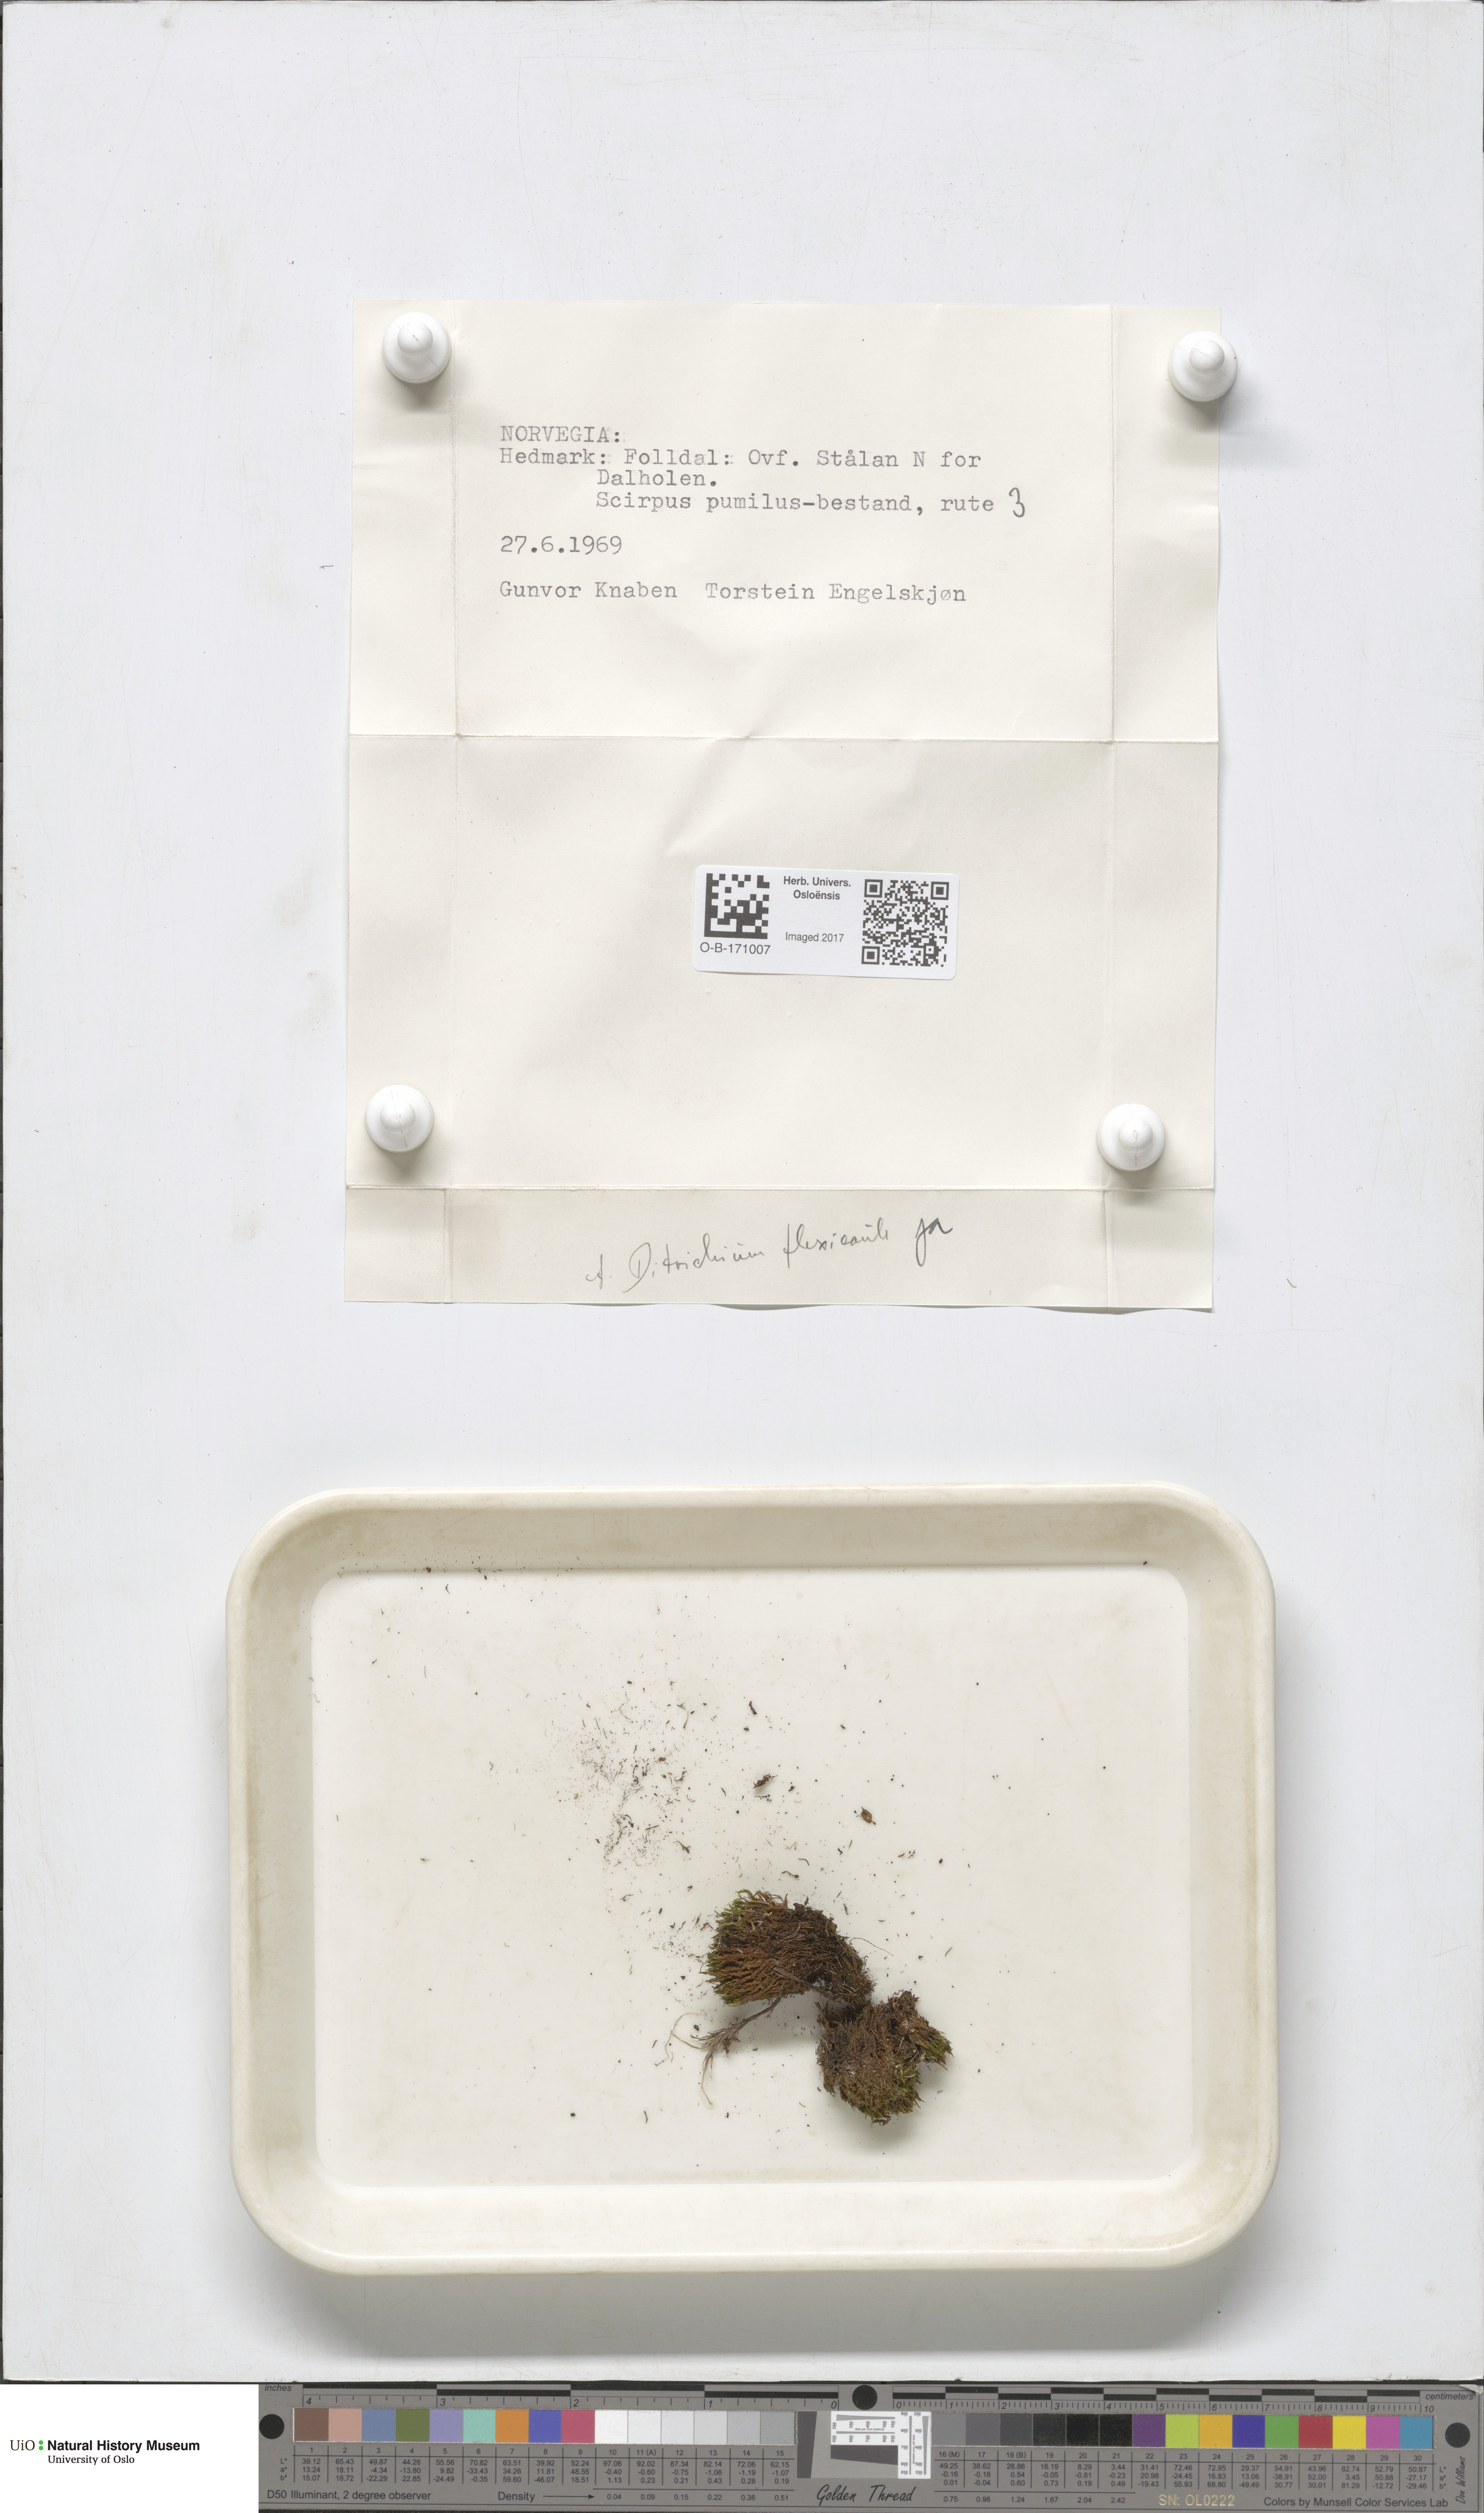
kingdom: Plantae
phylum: Bryophyta
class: Bryopsida
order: Scouleriales
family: Flexitrichaceae
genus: Flexitrichum
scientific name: Flexitrichum flexicaule
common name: Bendy ditrichum
